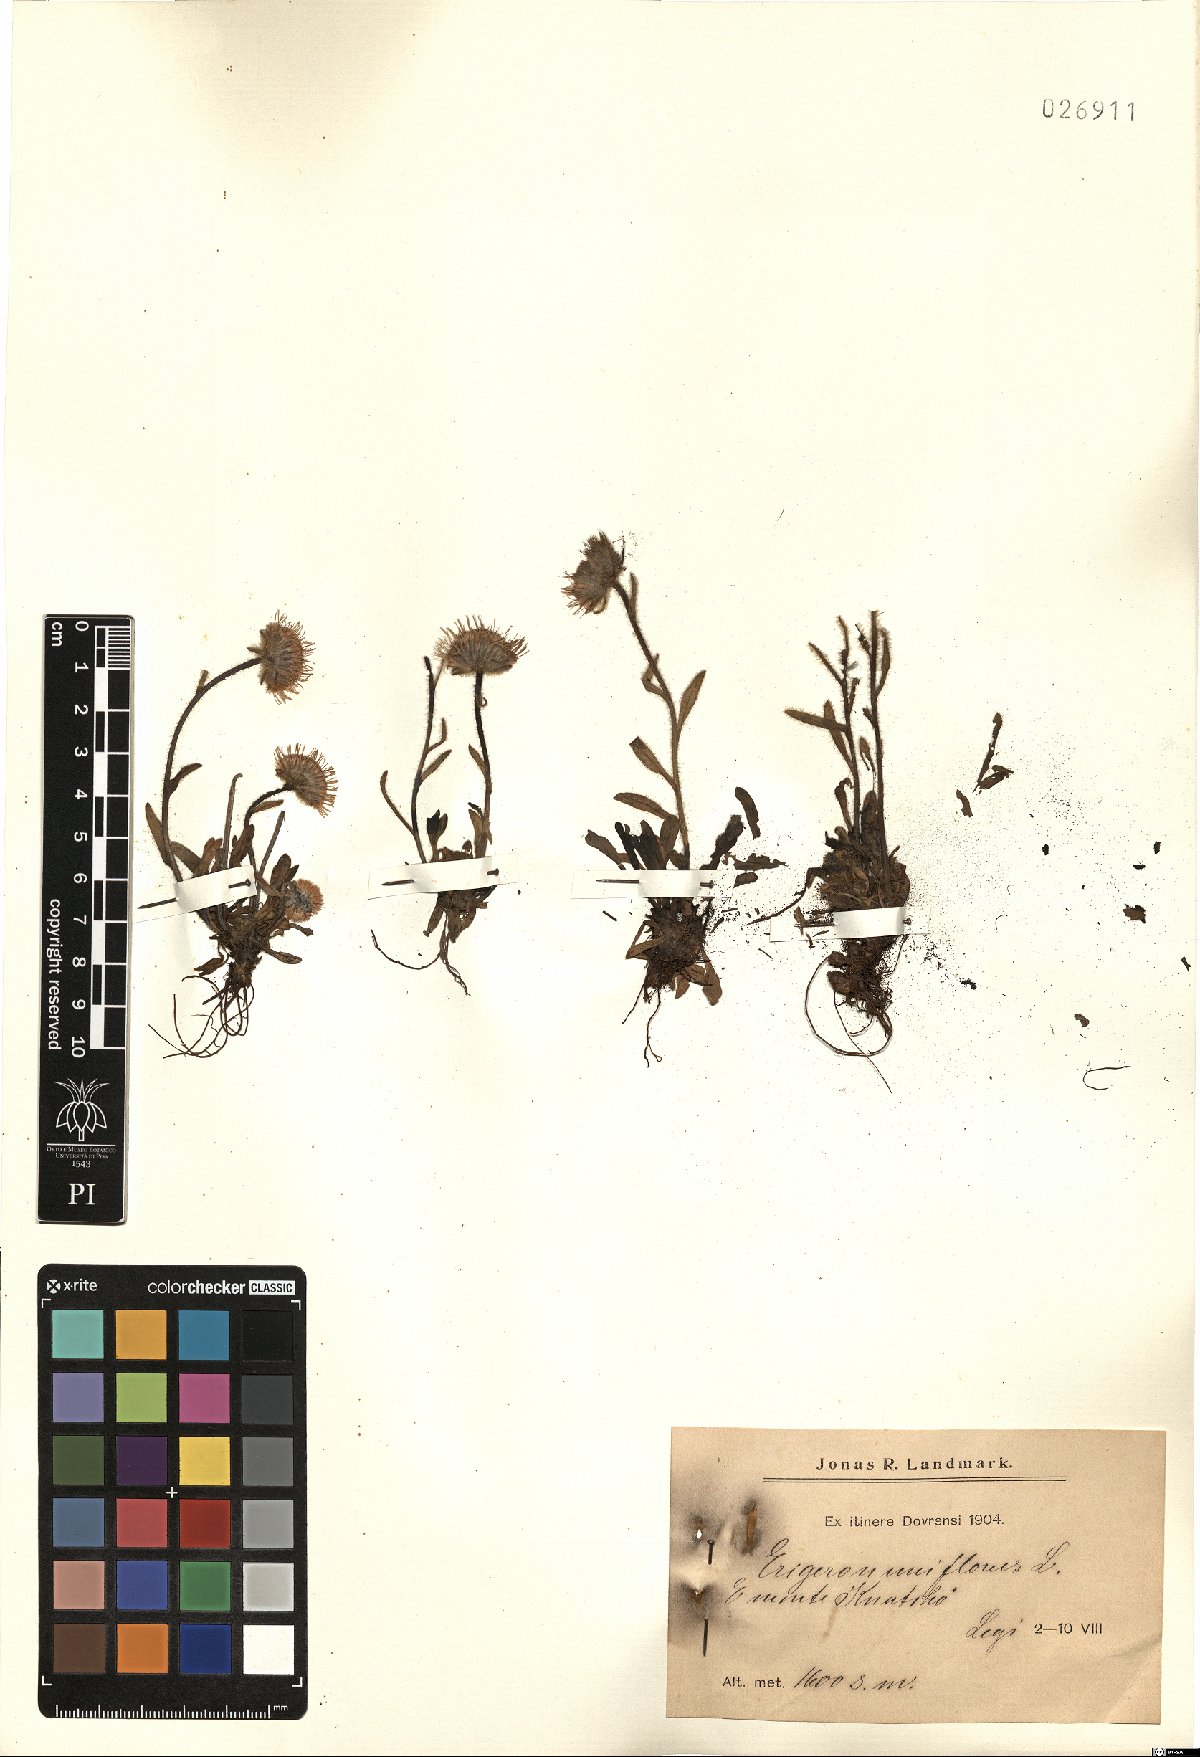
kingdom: Plantae
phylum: Tracheophyta
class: Magnoliopsida
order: Asterales
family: Asteraceae
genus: Erigeron
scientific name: Erigeron uniflorus
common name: Northern daisy
